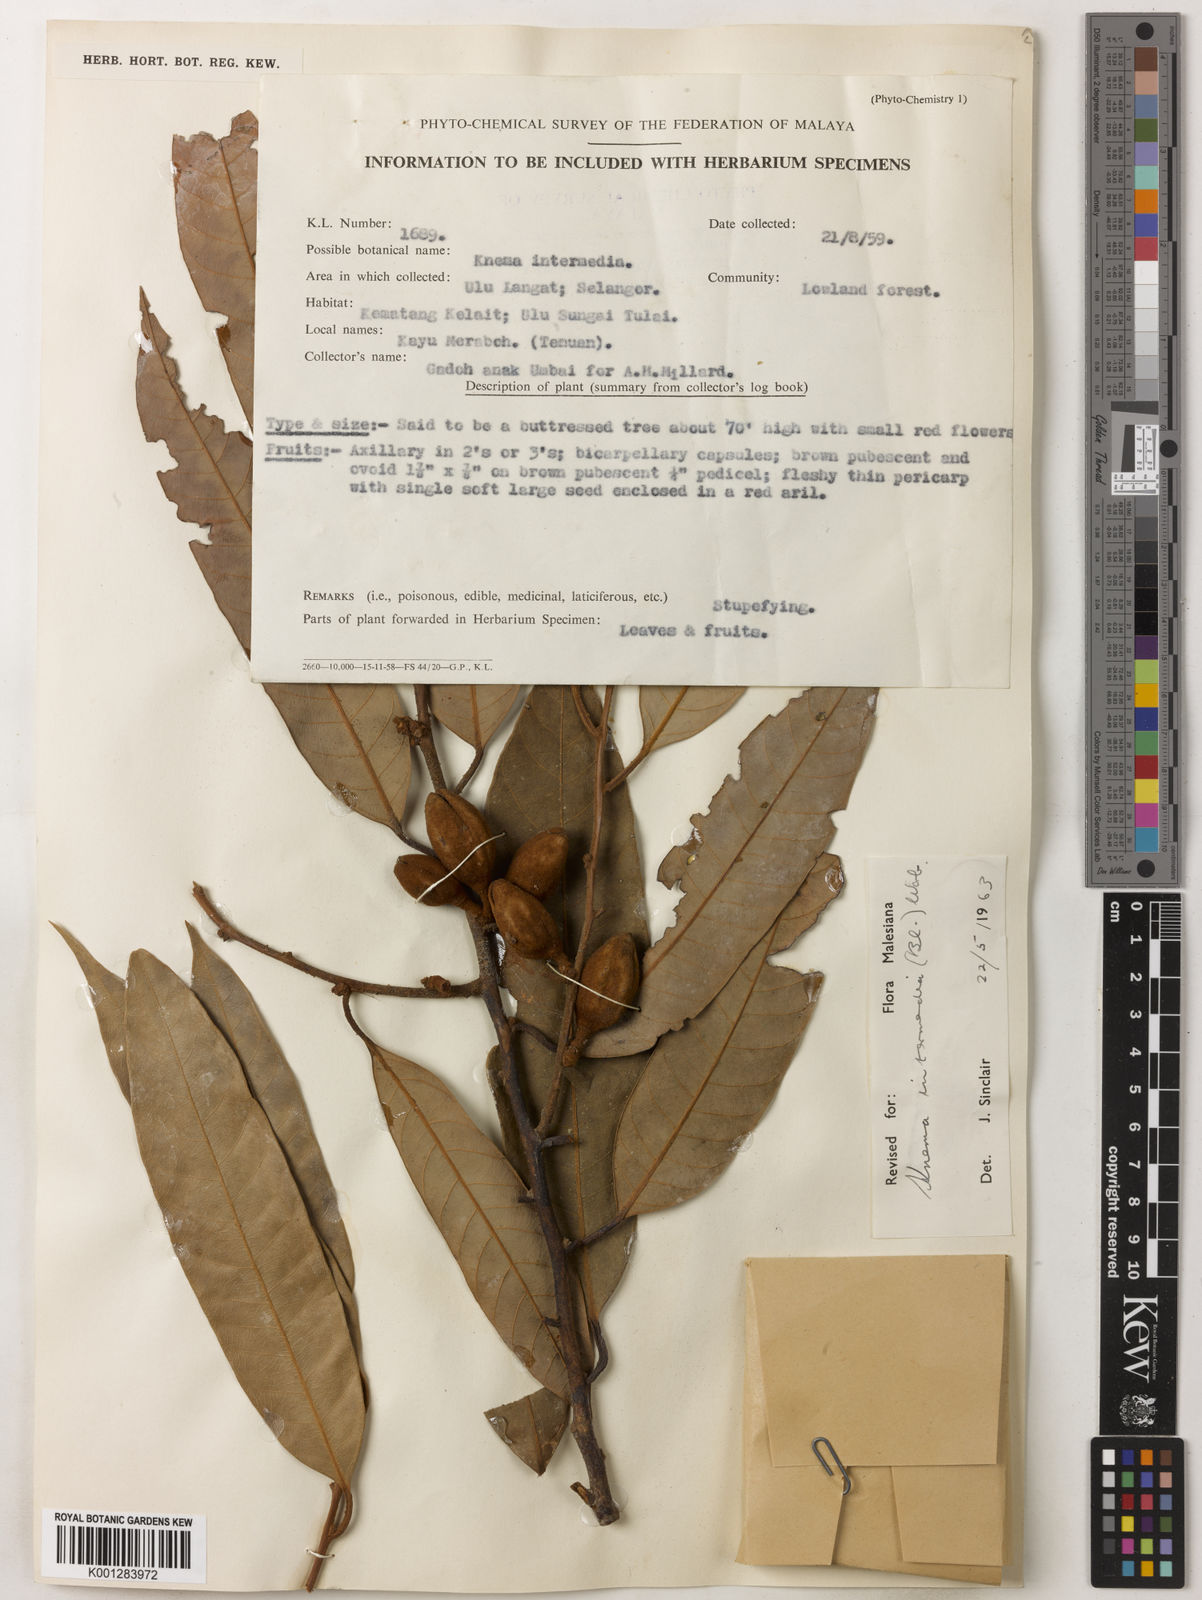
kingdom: Plantae
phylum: Tracheophyta
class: Magnoliopsida
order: Magnoliales
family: Myristicaceae
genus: Knema
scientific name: Knema intermedia
